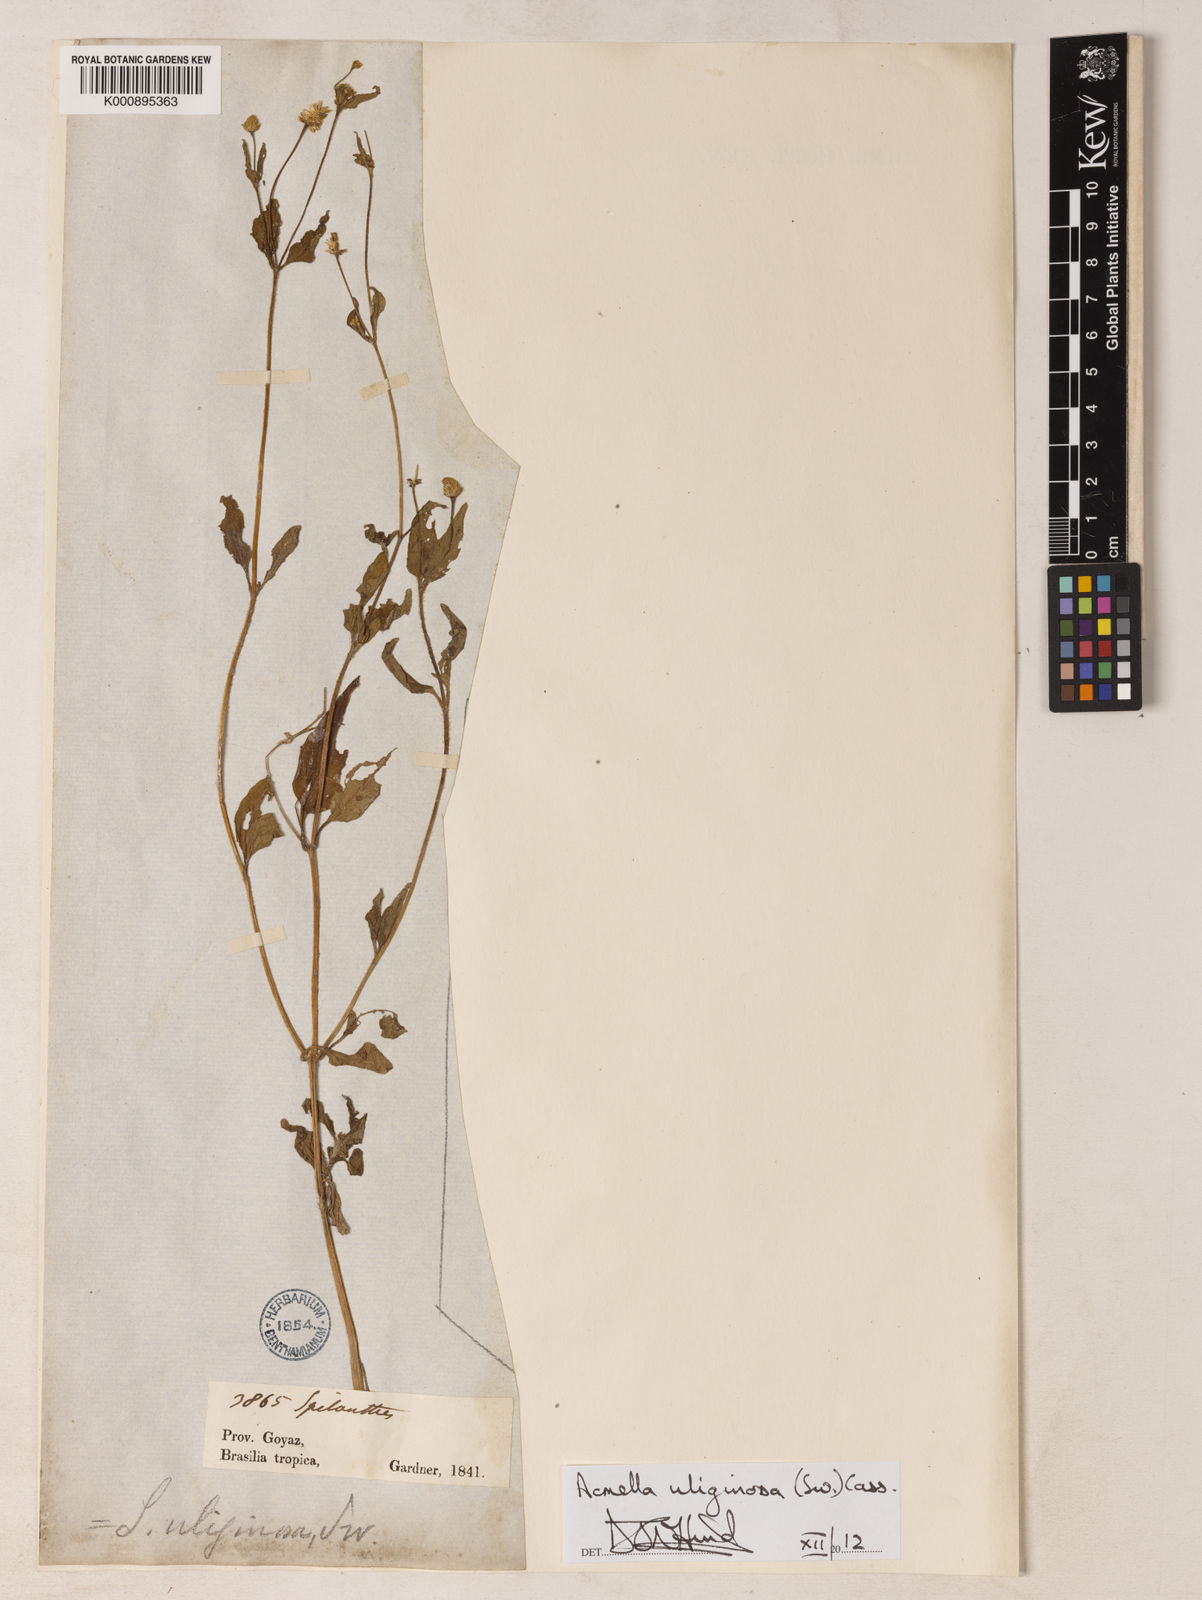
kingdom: Plantae
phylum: Tracheophyta
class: Magnoliopsida
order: Asterales
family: Asteraceae
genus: Acmella
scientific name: Acmella uliginosa
